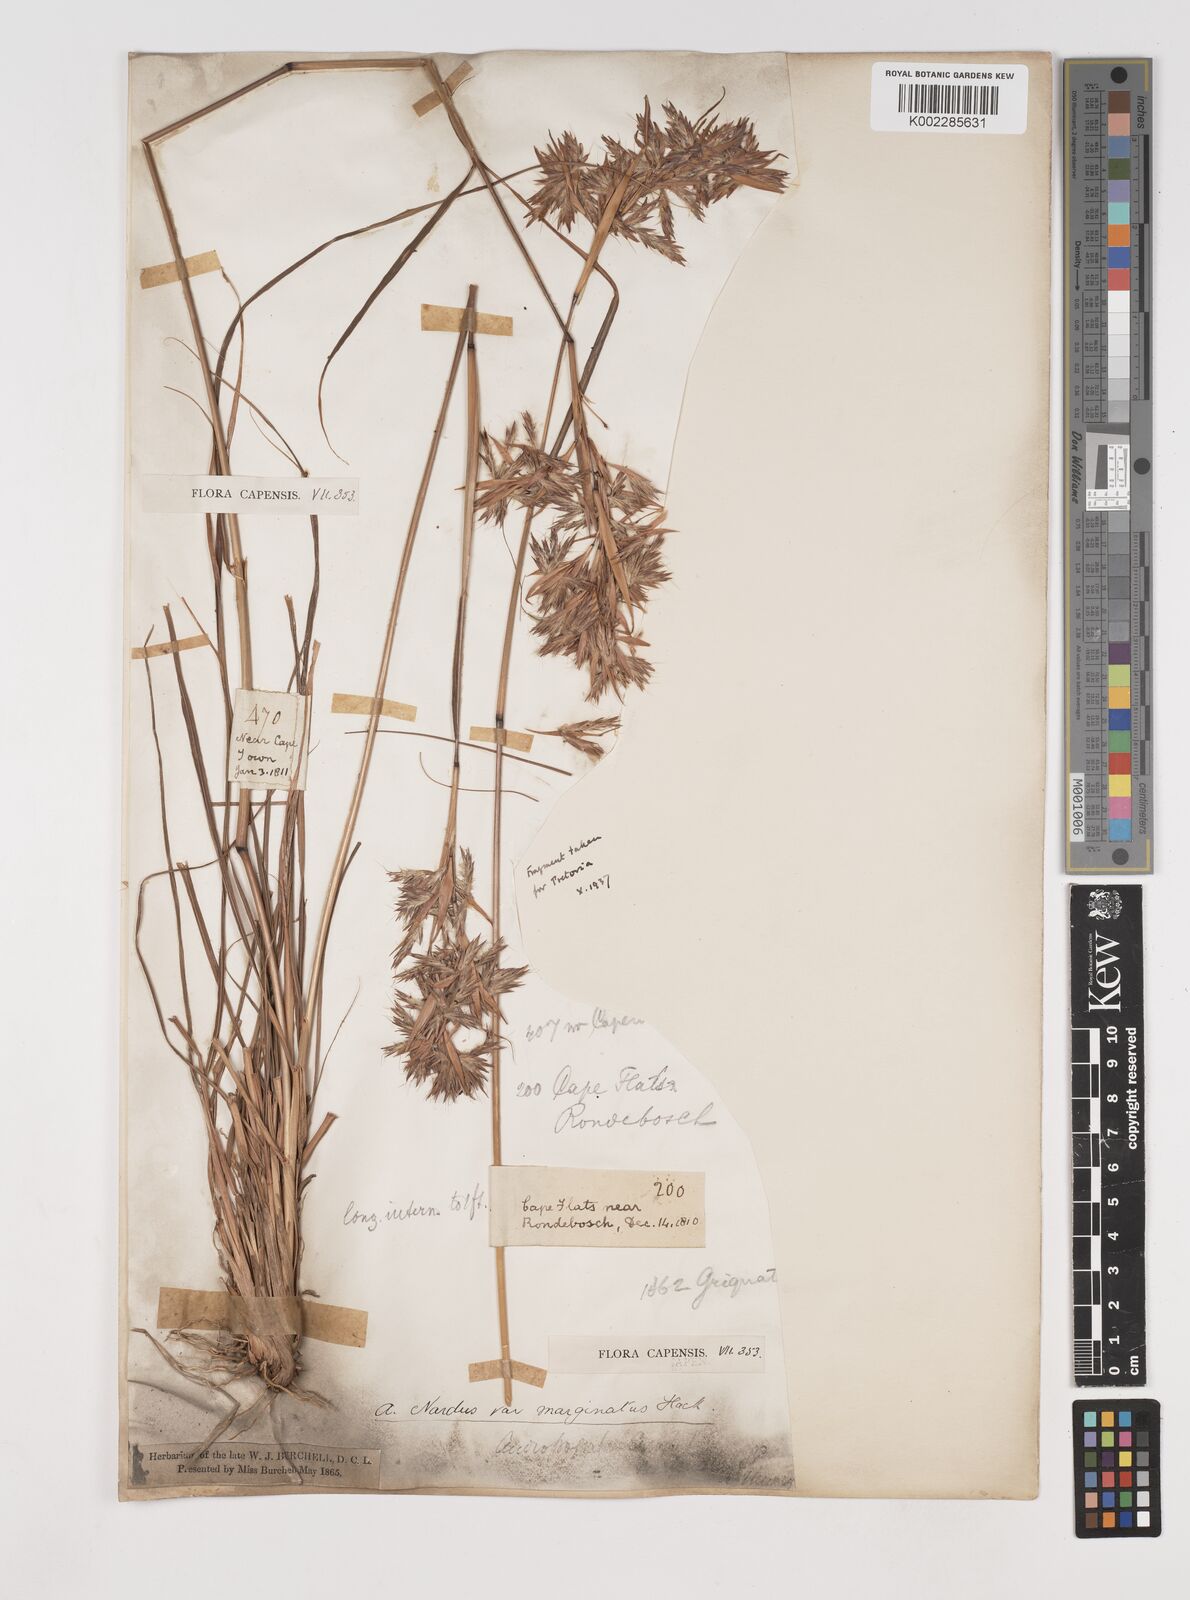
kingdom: Plantae
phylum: Tracheophyta
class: Liliopsida
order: Poales
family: Poaceae
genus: Cymbopogon
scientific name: Cymbopogon marginatus
